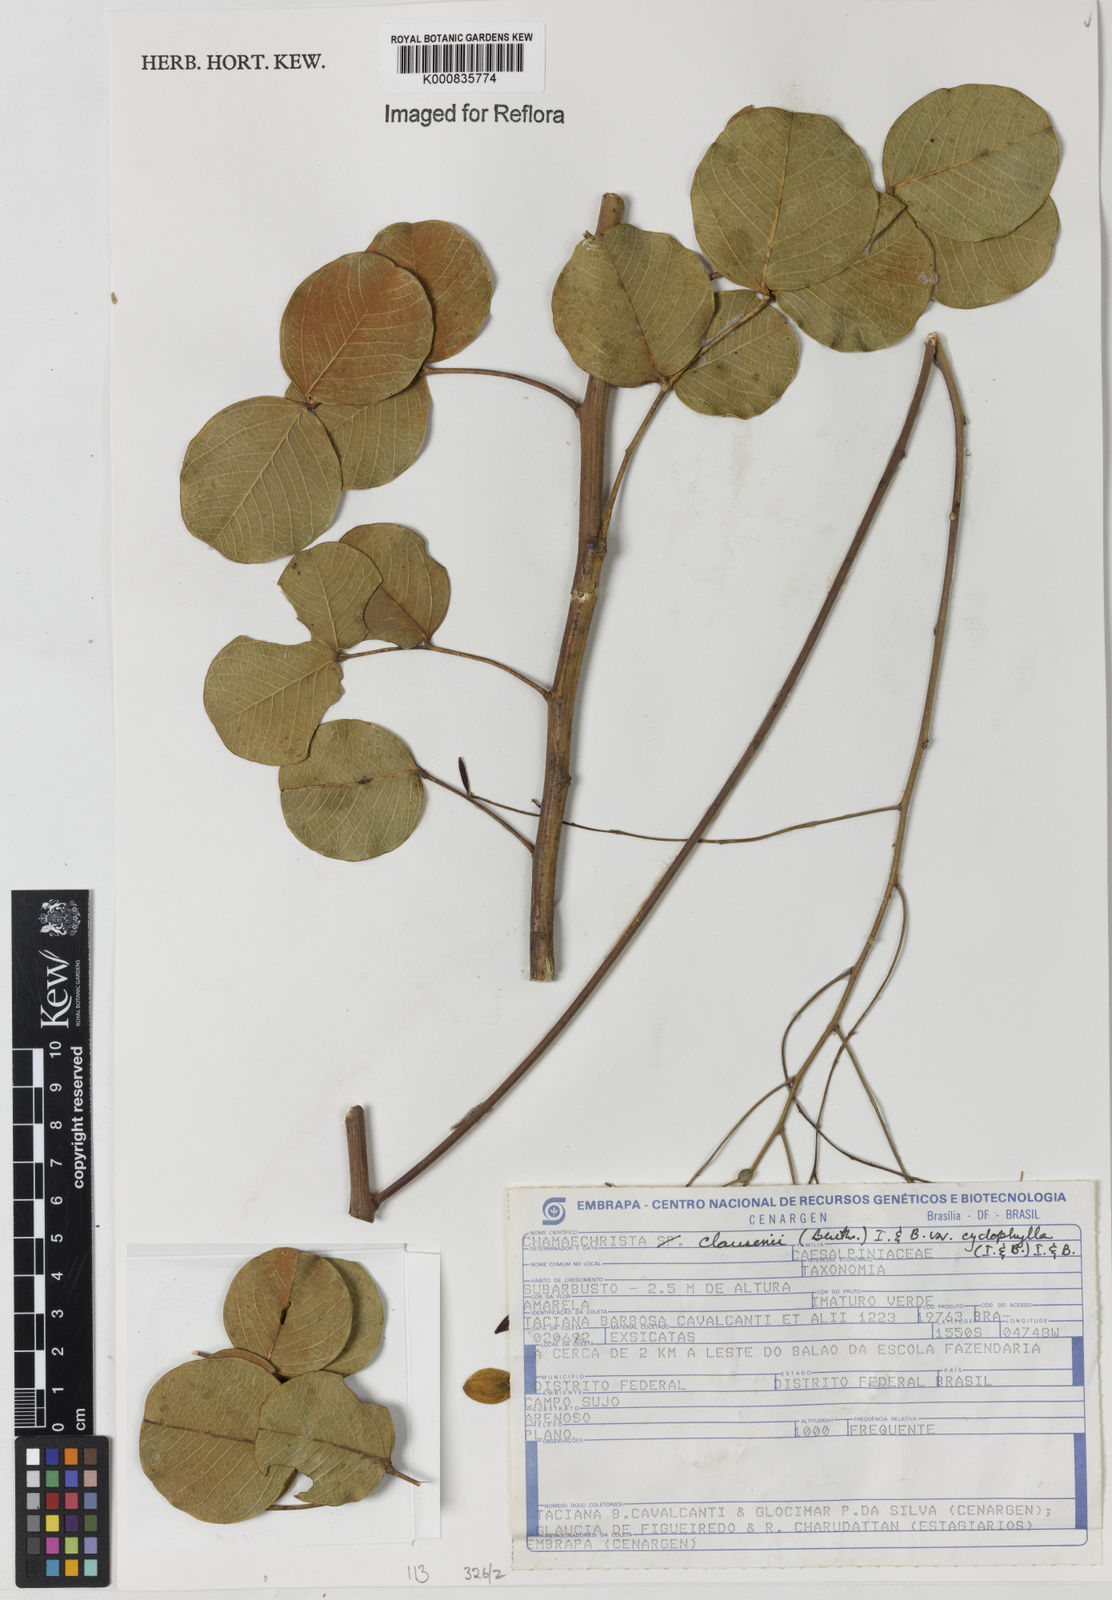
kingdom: Plantae
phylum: Tracheophyta
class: Magnoliopsida
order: Fabales
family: Fabaceae
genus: Chamaecrista
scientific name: Chamaecrista cyclophylla
